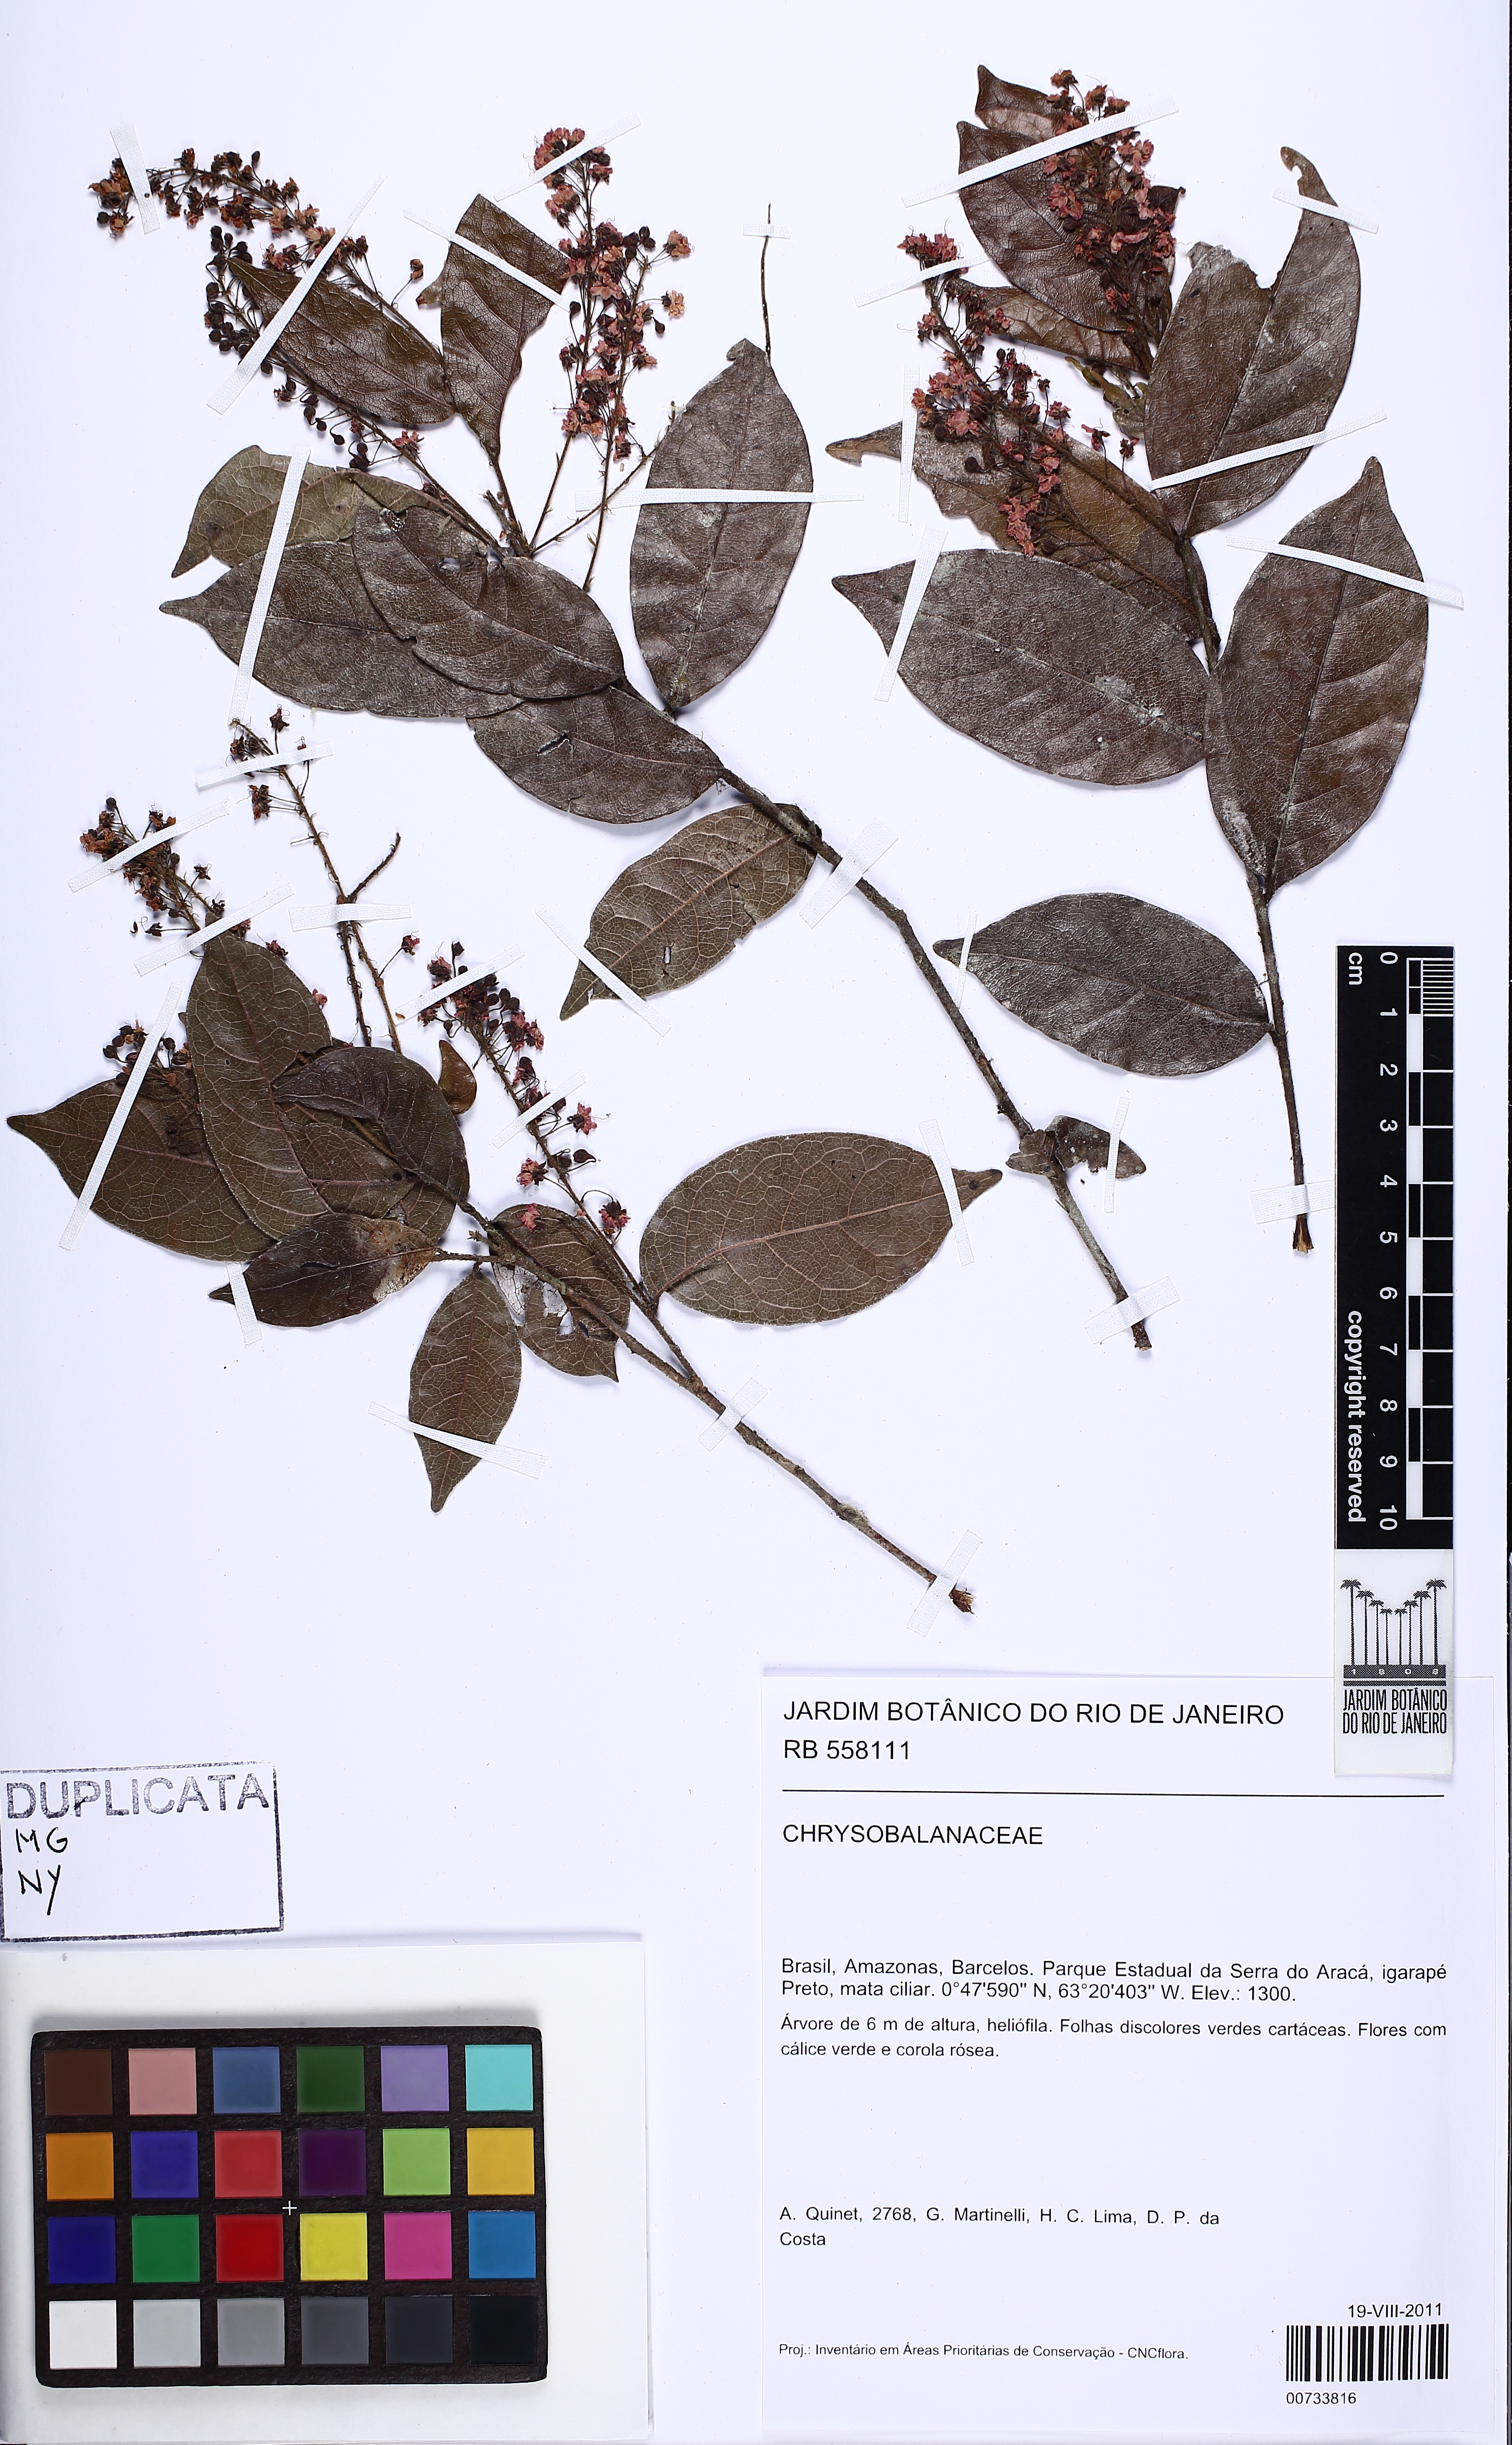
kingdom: Plantae
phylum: Tracheophyta
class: Magnoliopsida
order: Malpighiales
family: Chrysobalanaceae
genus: Hirtella
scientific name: Hirtella
